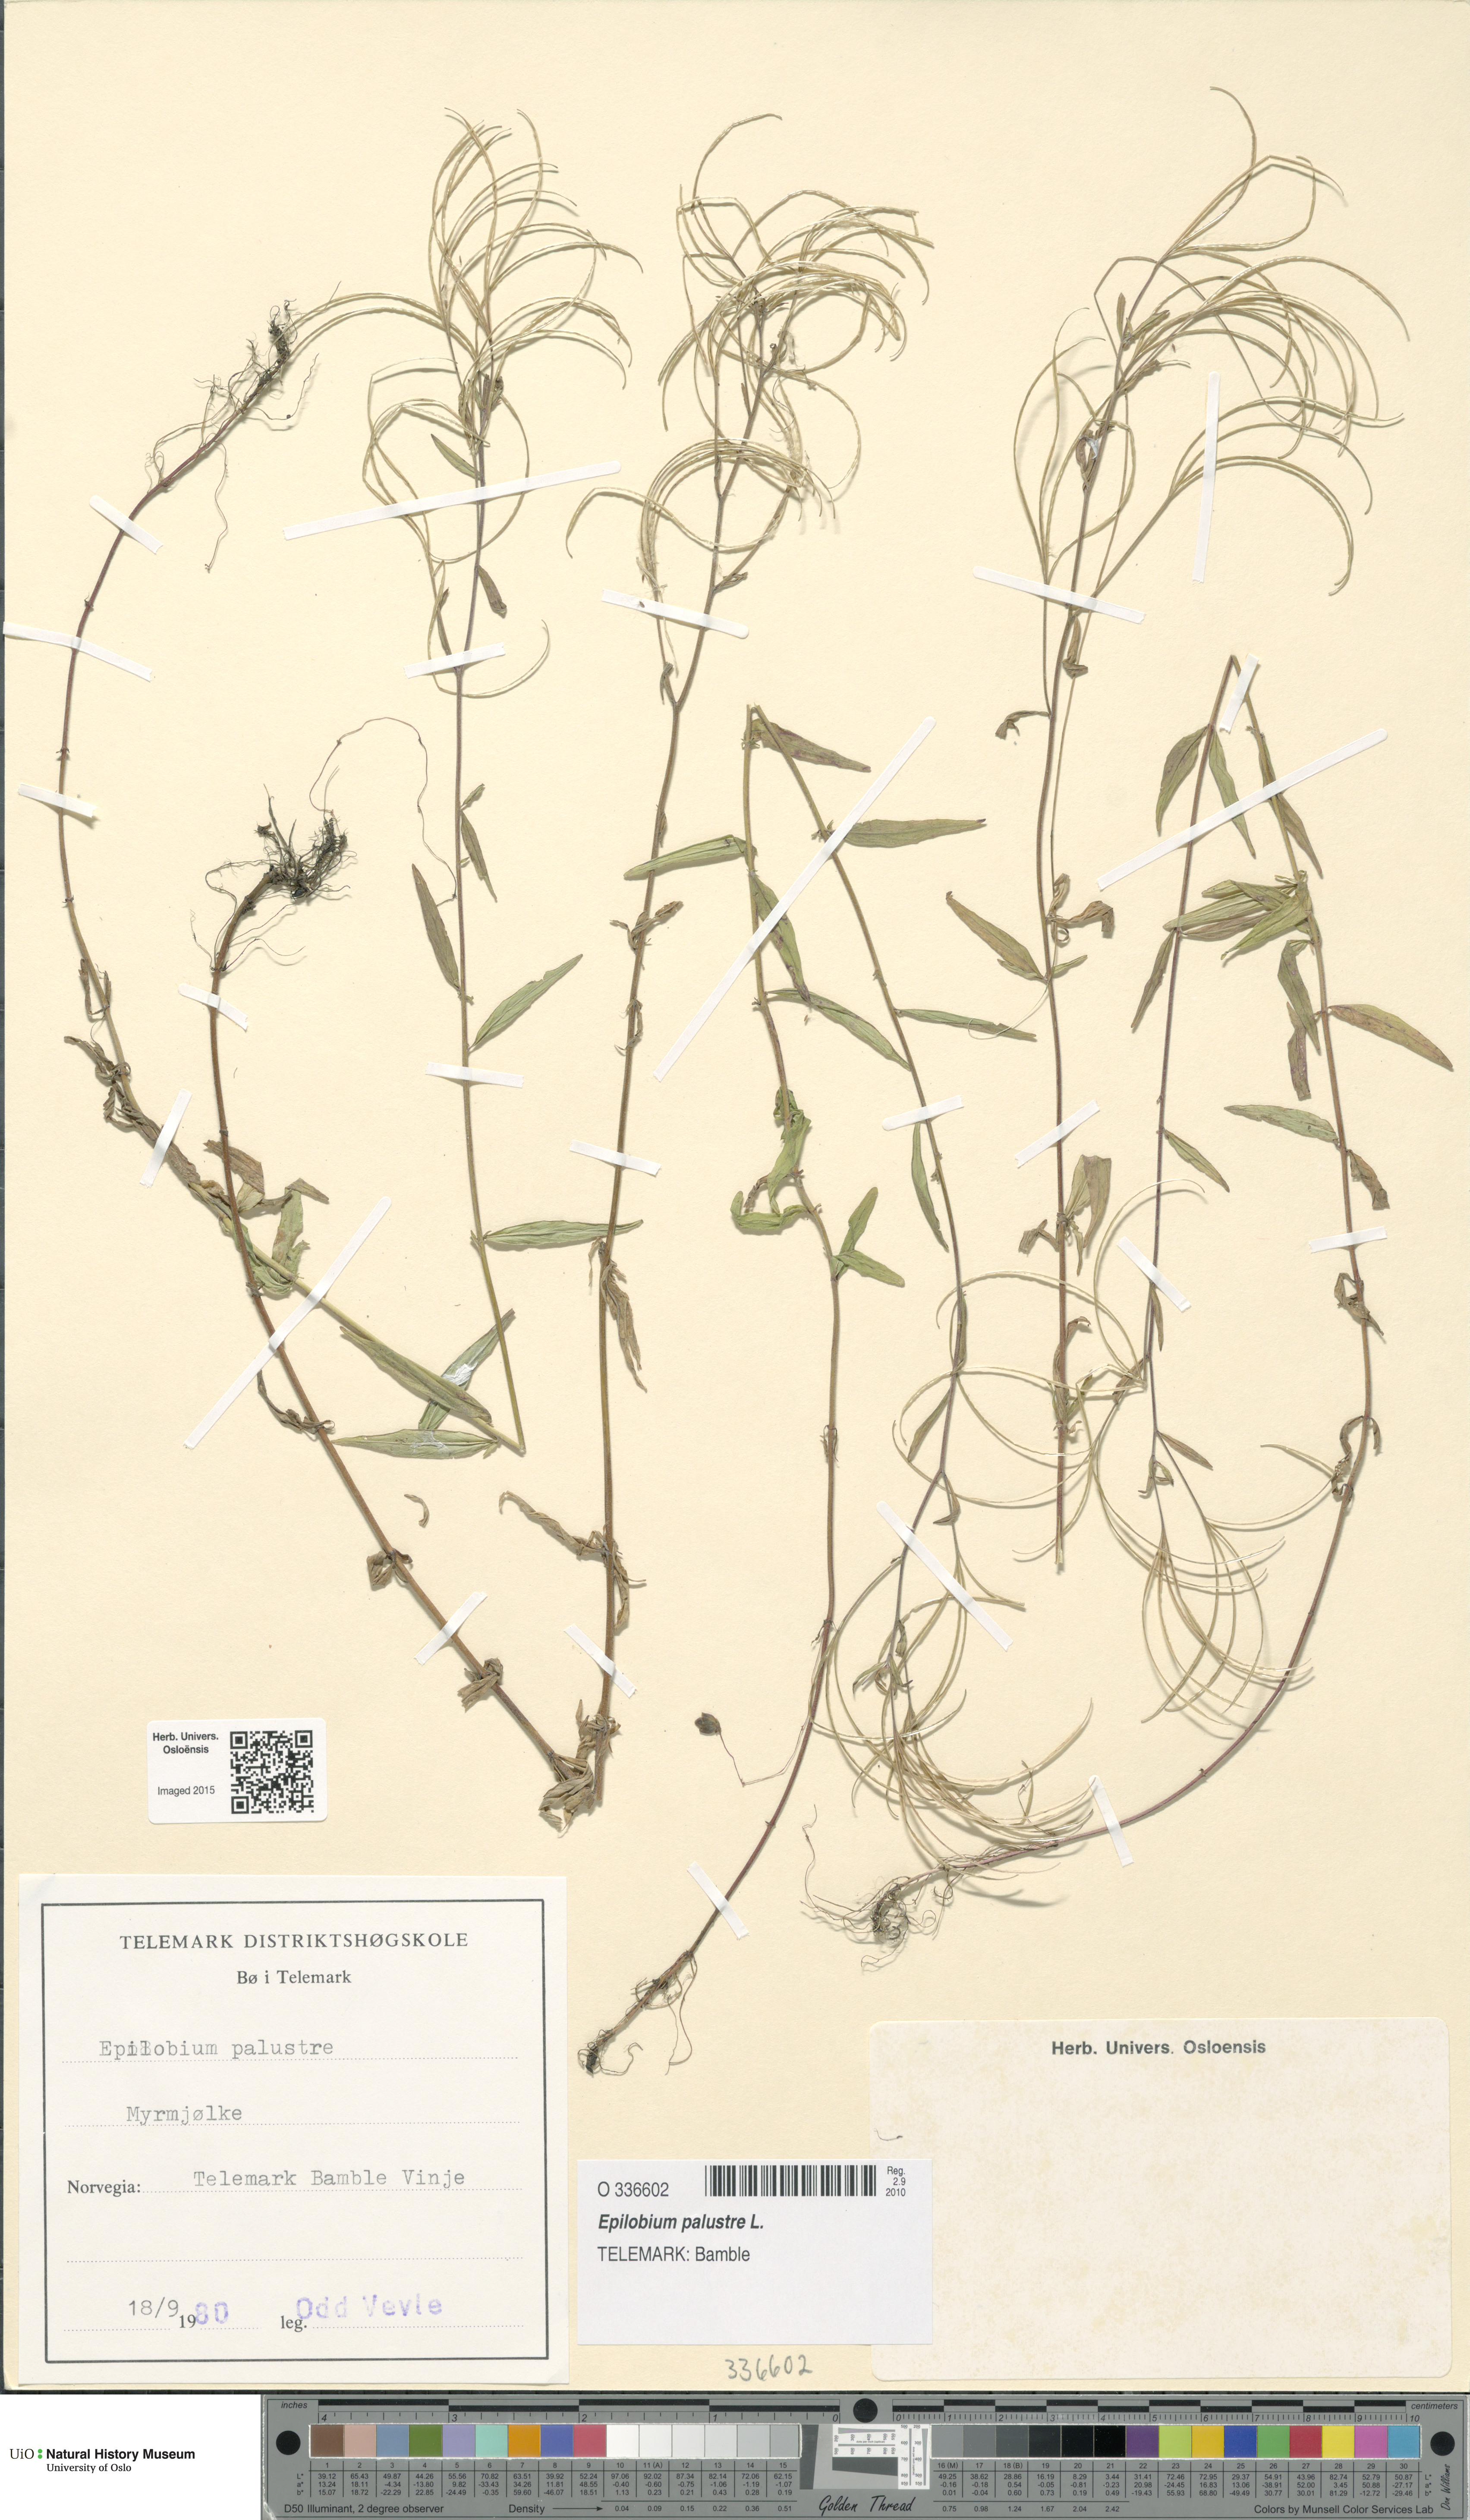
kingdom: Plantae
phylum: Tracheophyta
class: Magnoliopsida
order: Myrtales
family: Onagraceae
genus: Epilobium
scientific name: Epilobium palustre
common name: Marsh willowherb
